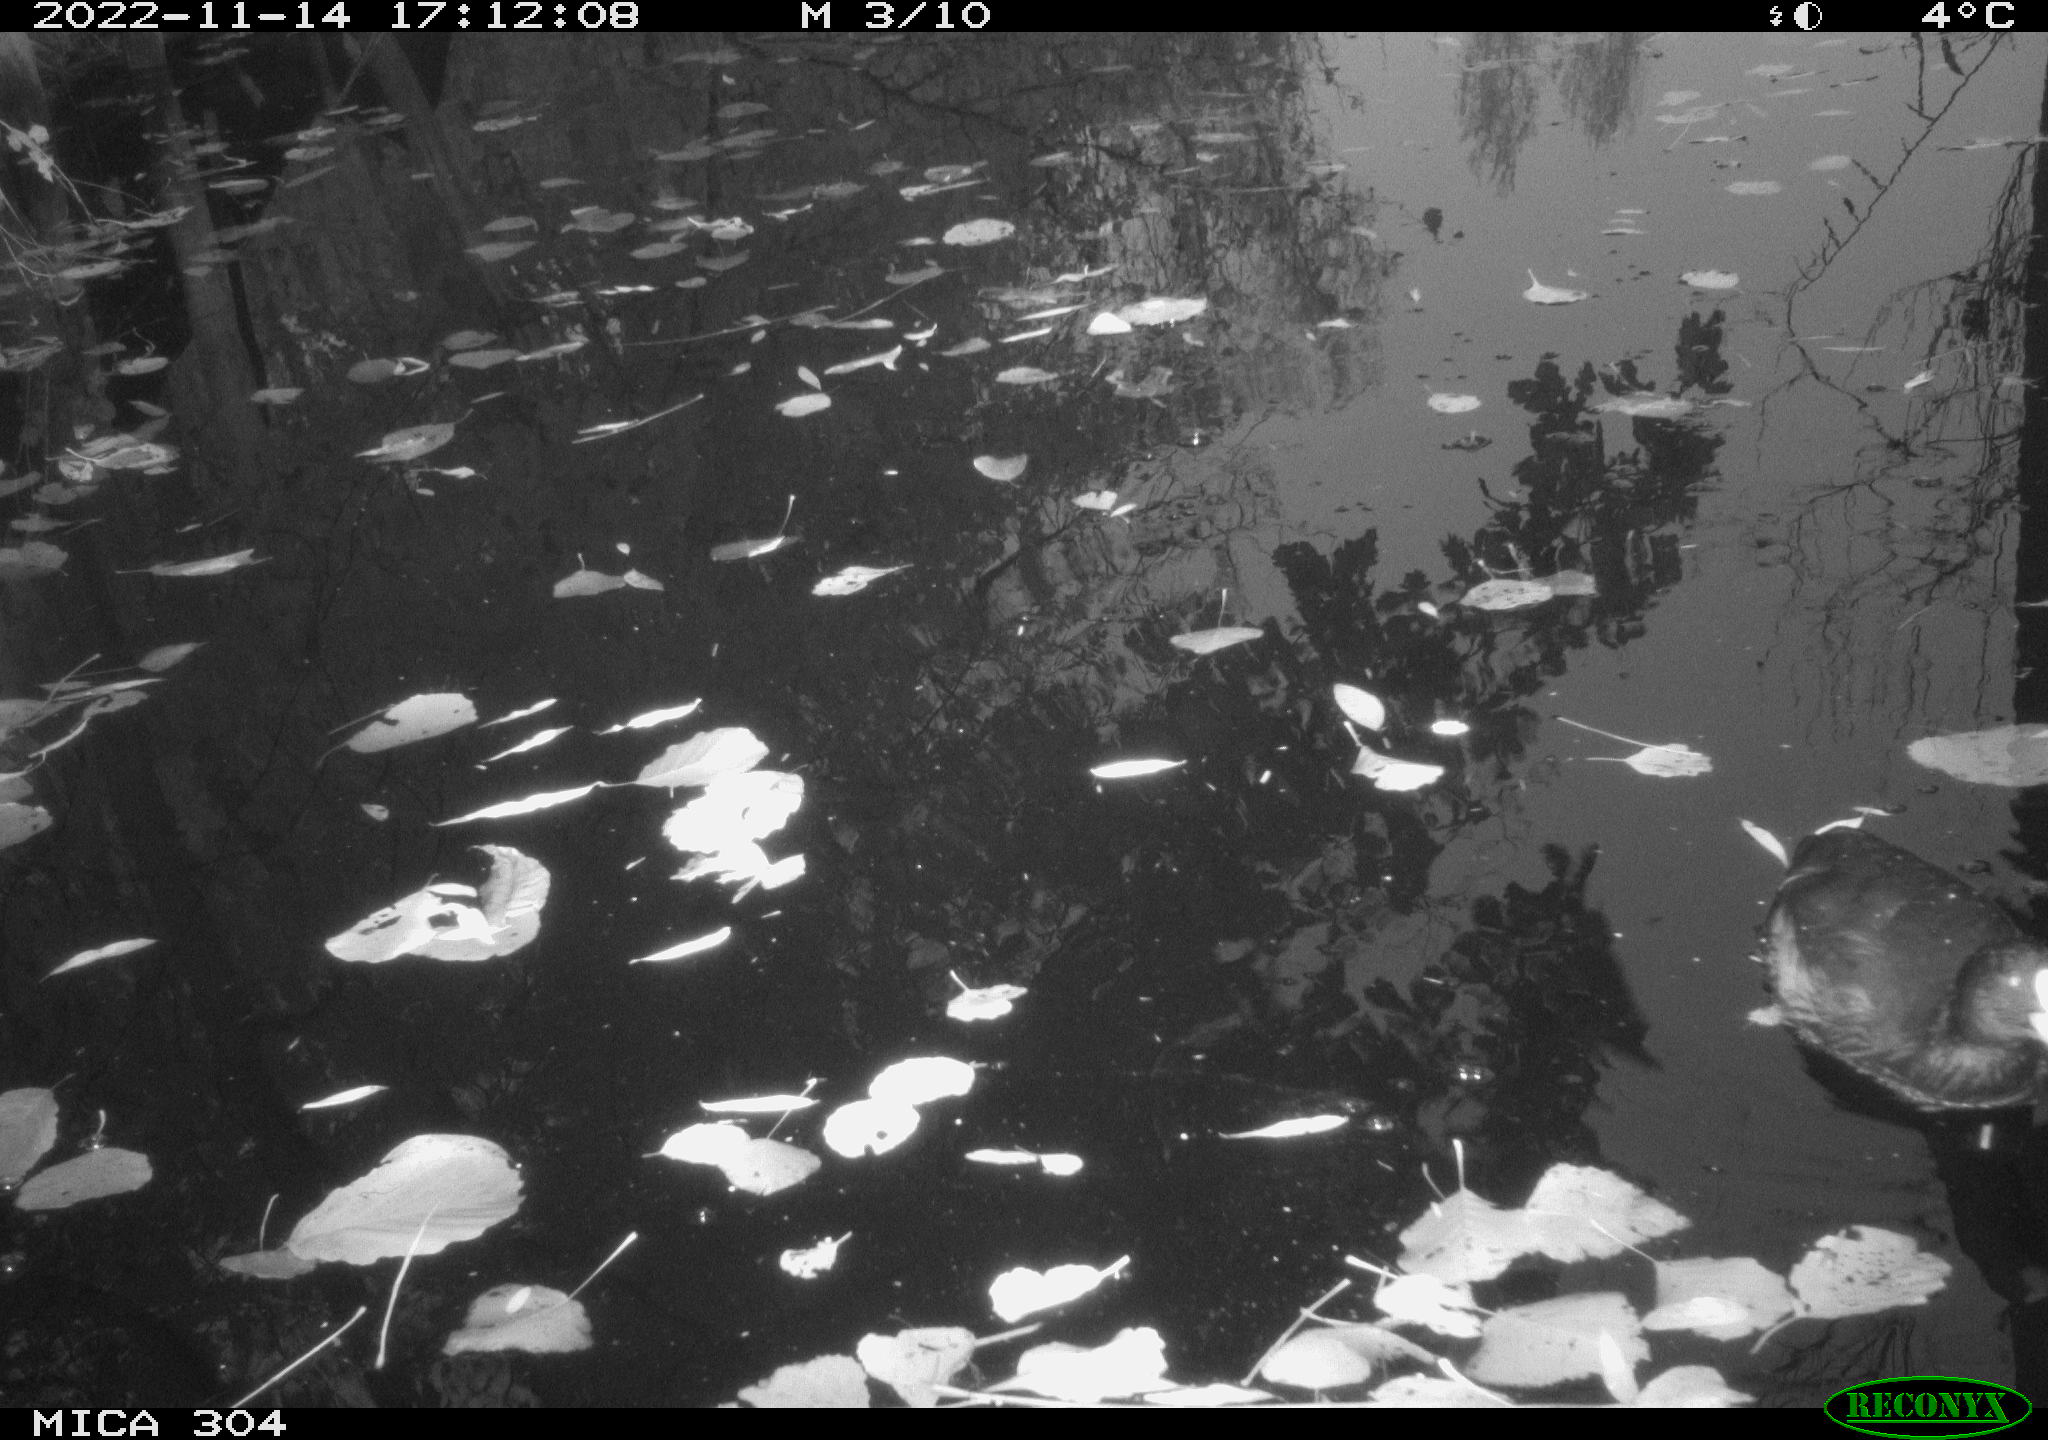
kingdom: Animalia
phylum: Chordata
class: Aves
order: Gruiformes
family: Rallidae
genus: Fulica
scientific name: Fulica atra
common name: Eurasian coot
